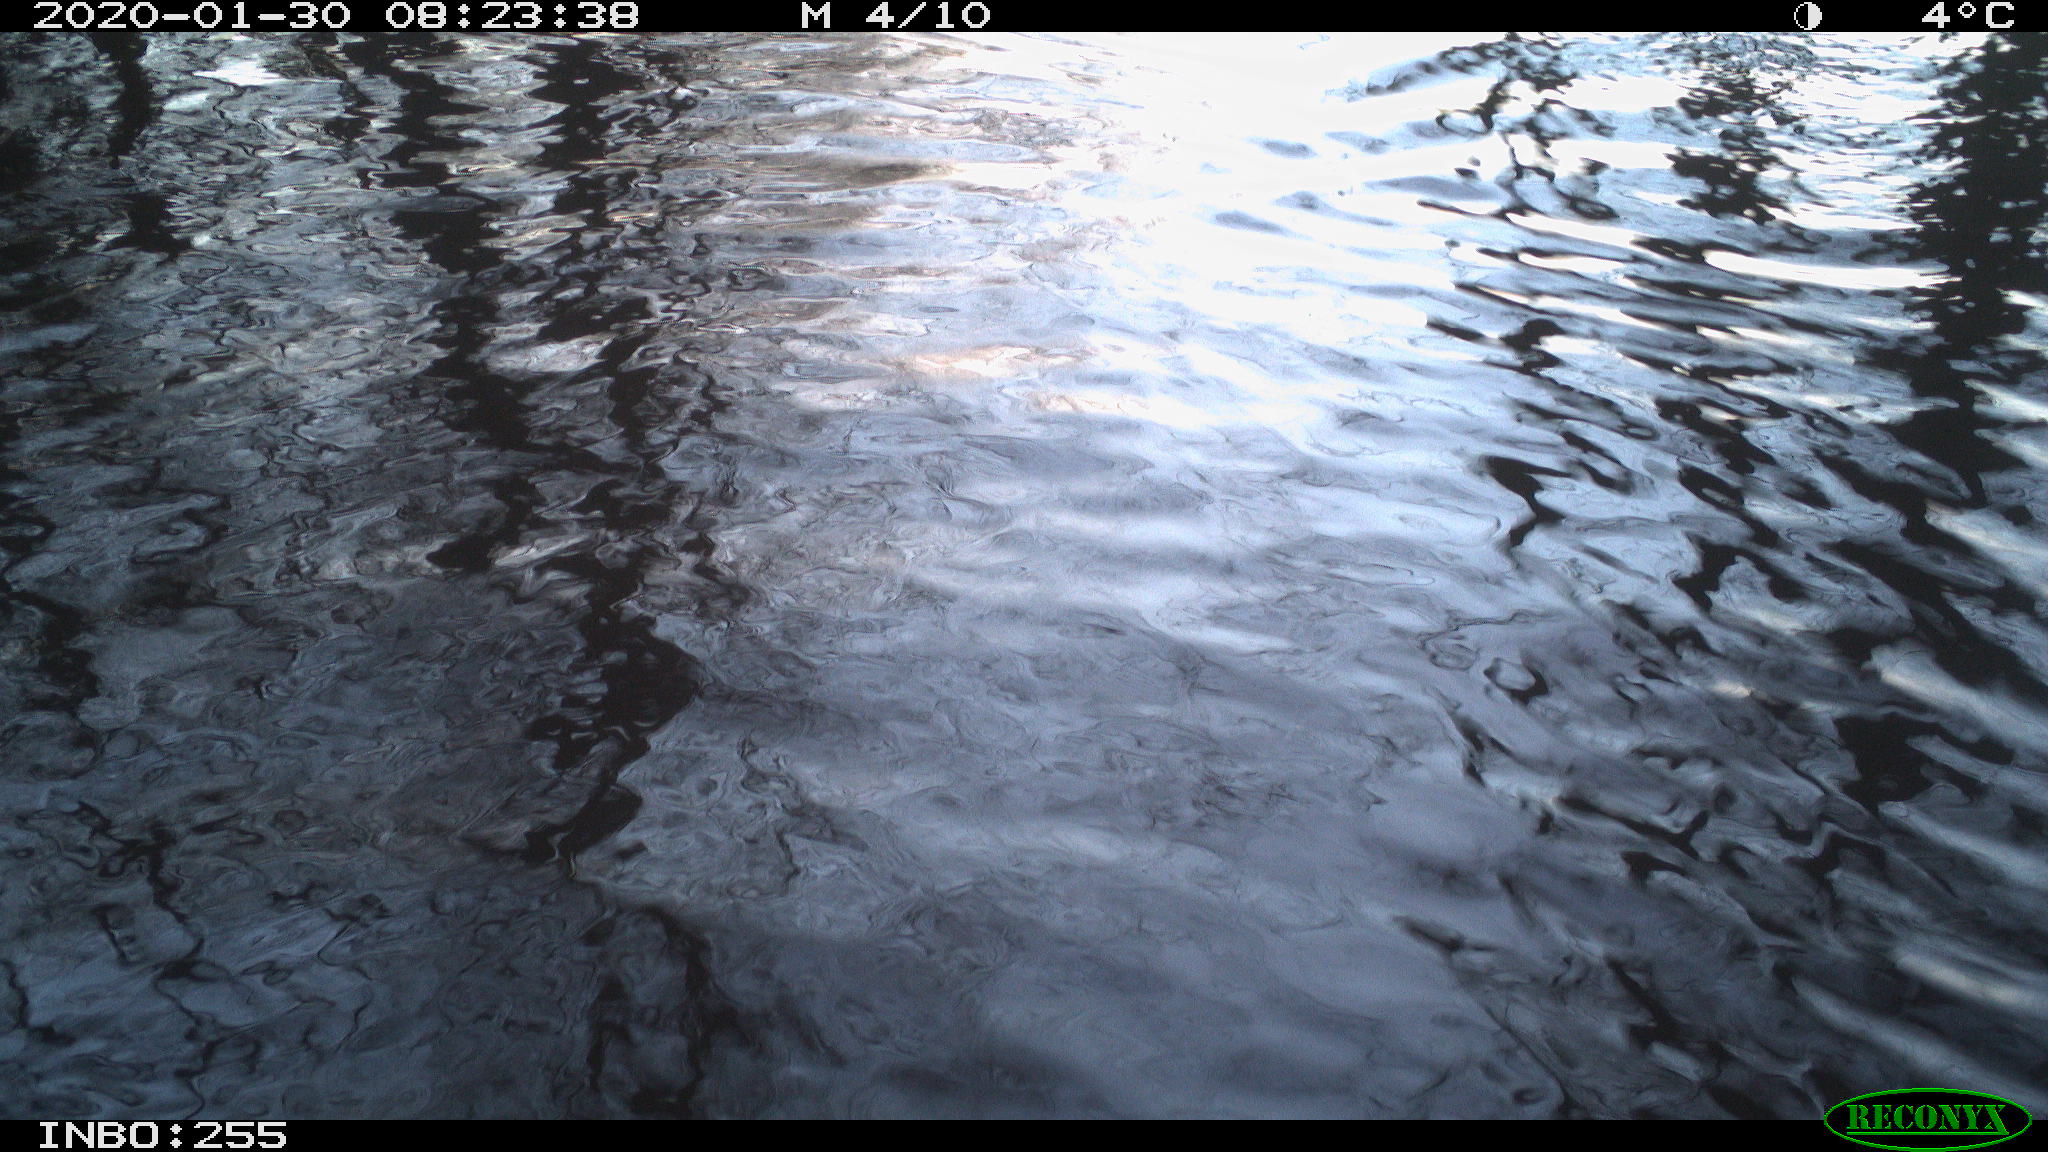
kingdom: Animalia
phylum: Chordata
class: Aves
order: Gruiformes
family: Rallidae
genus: Fulica
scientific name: Fulica atra
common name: Eurasian coot
